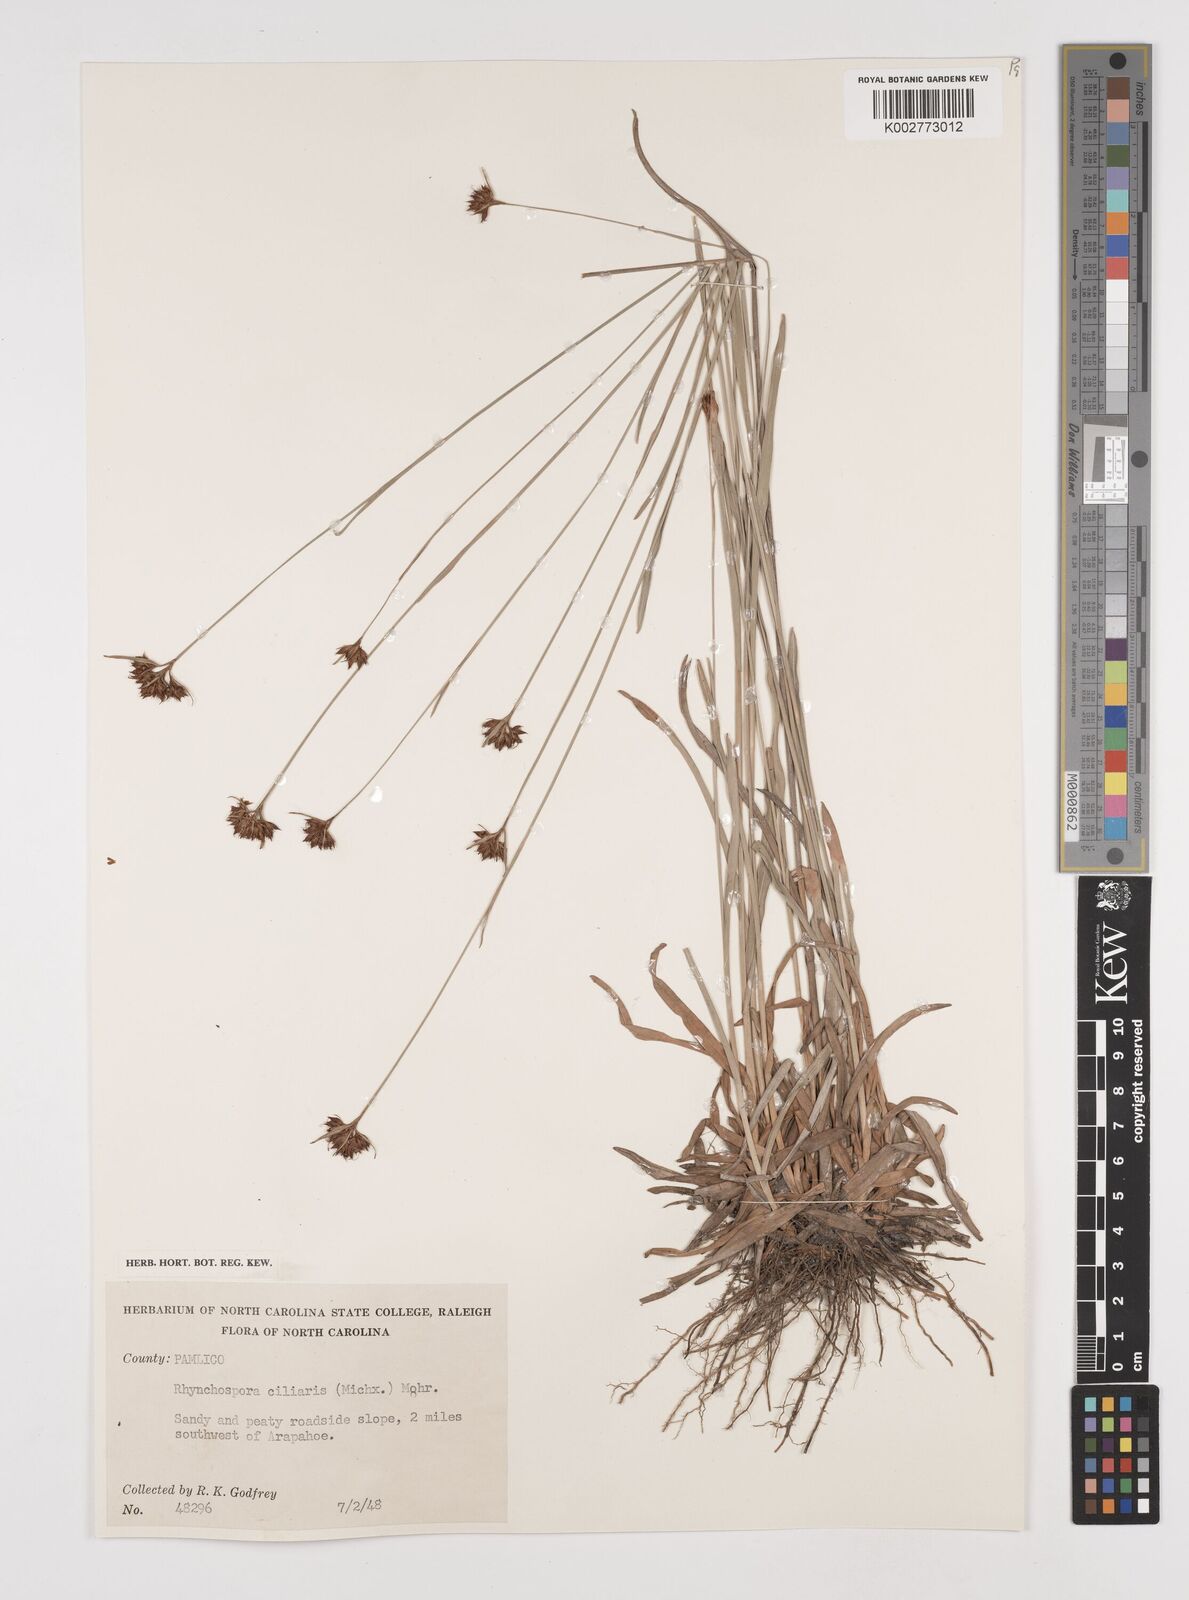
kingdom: Plantae
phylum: Tracheophyta
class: Liliopsida
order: Poales
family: Cyperaceae
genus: Rhynchospora
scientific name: Rhynchospora ciliaris
